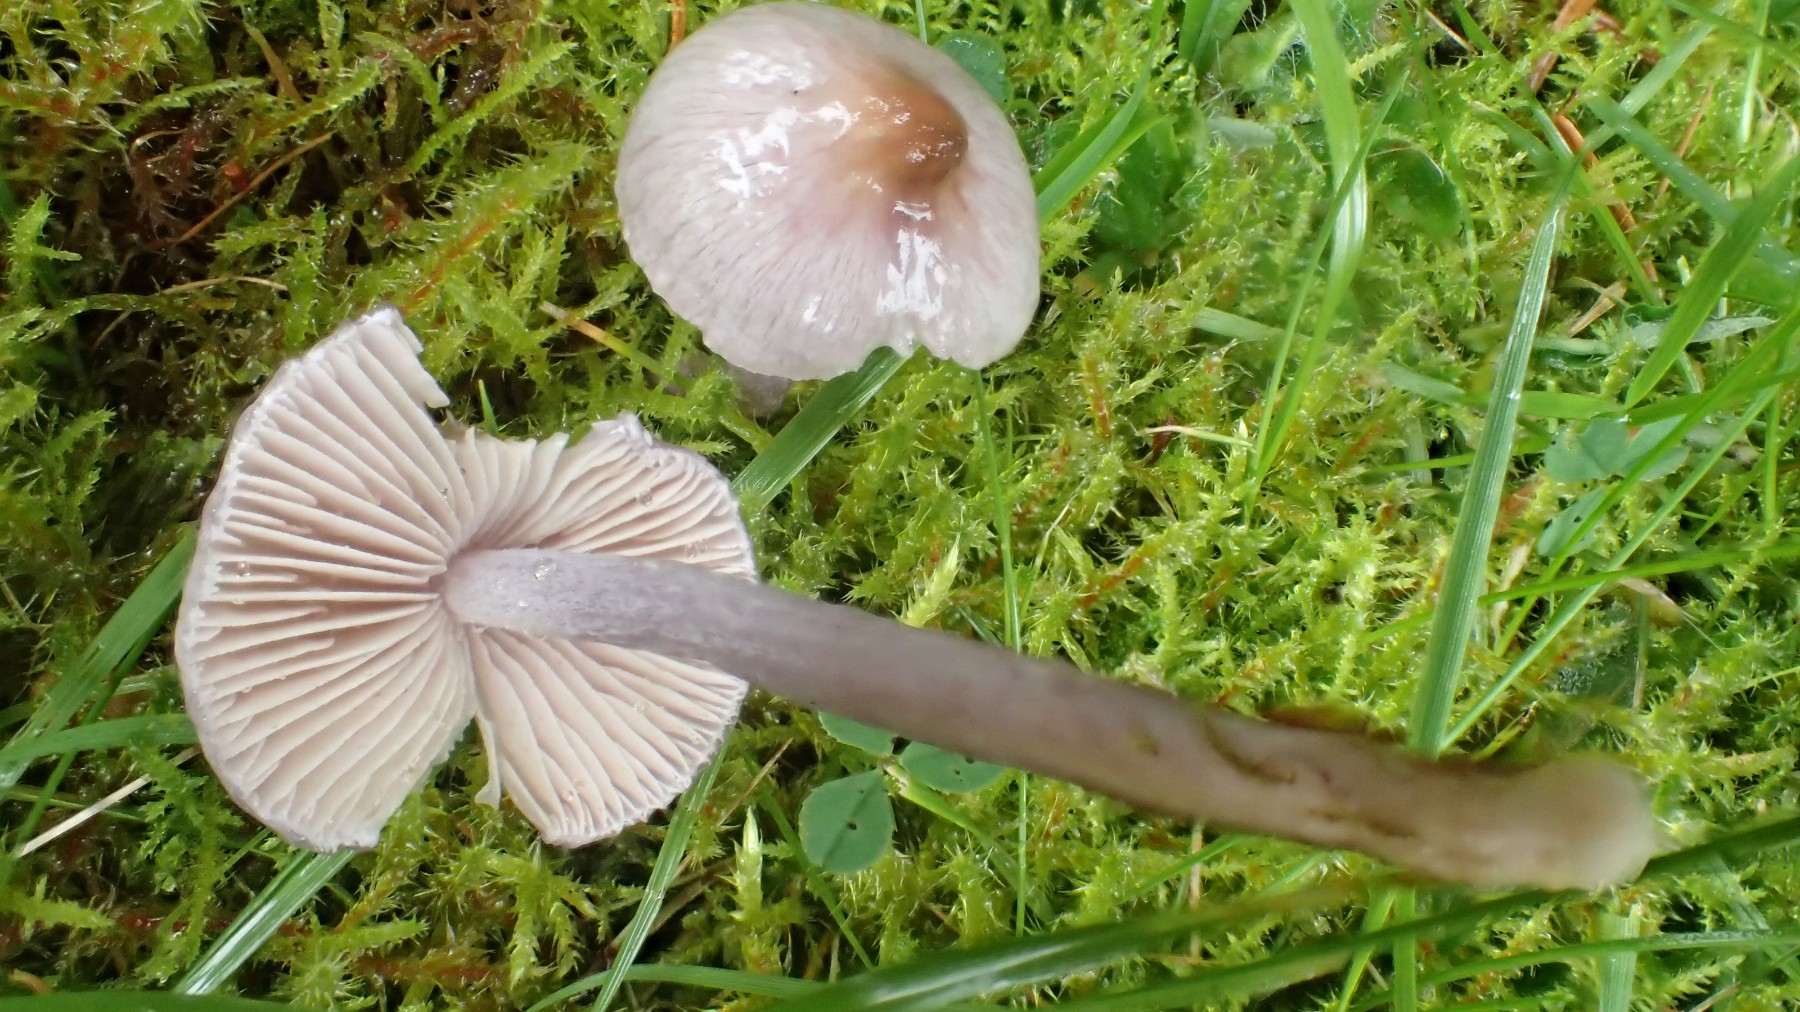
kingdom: Fungi
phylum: Basidiomycota
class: Agaricomycetes
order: Agaricales
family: Inocybaceae
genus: Inocybe
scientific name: Inocybe geophylla
